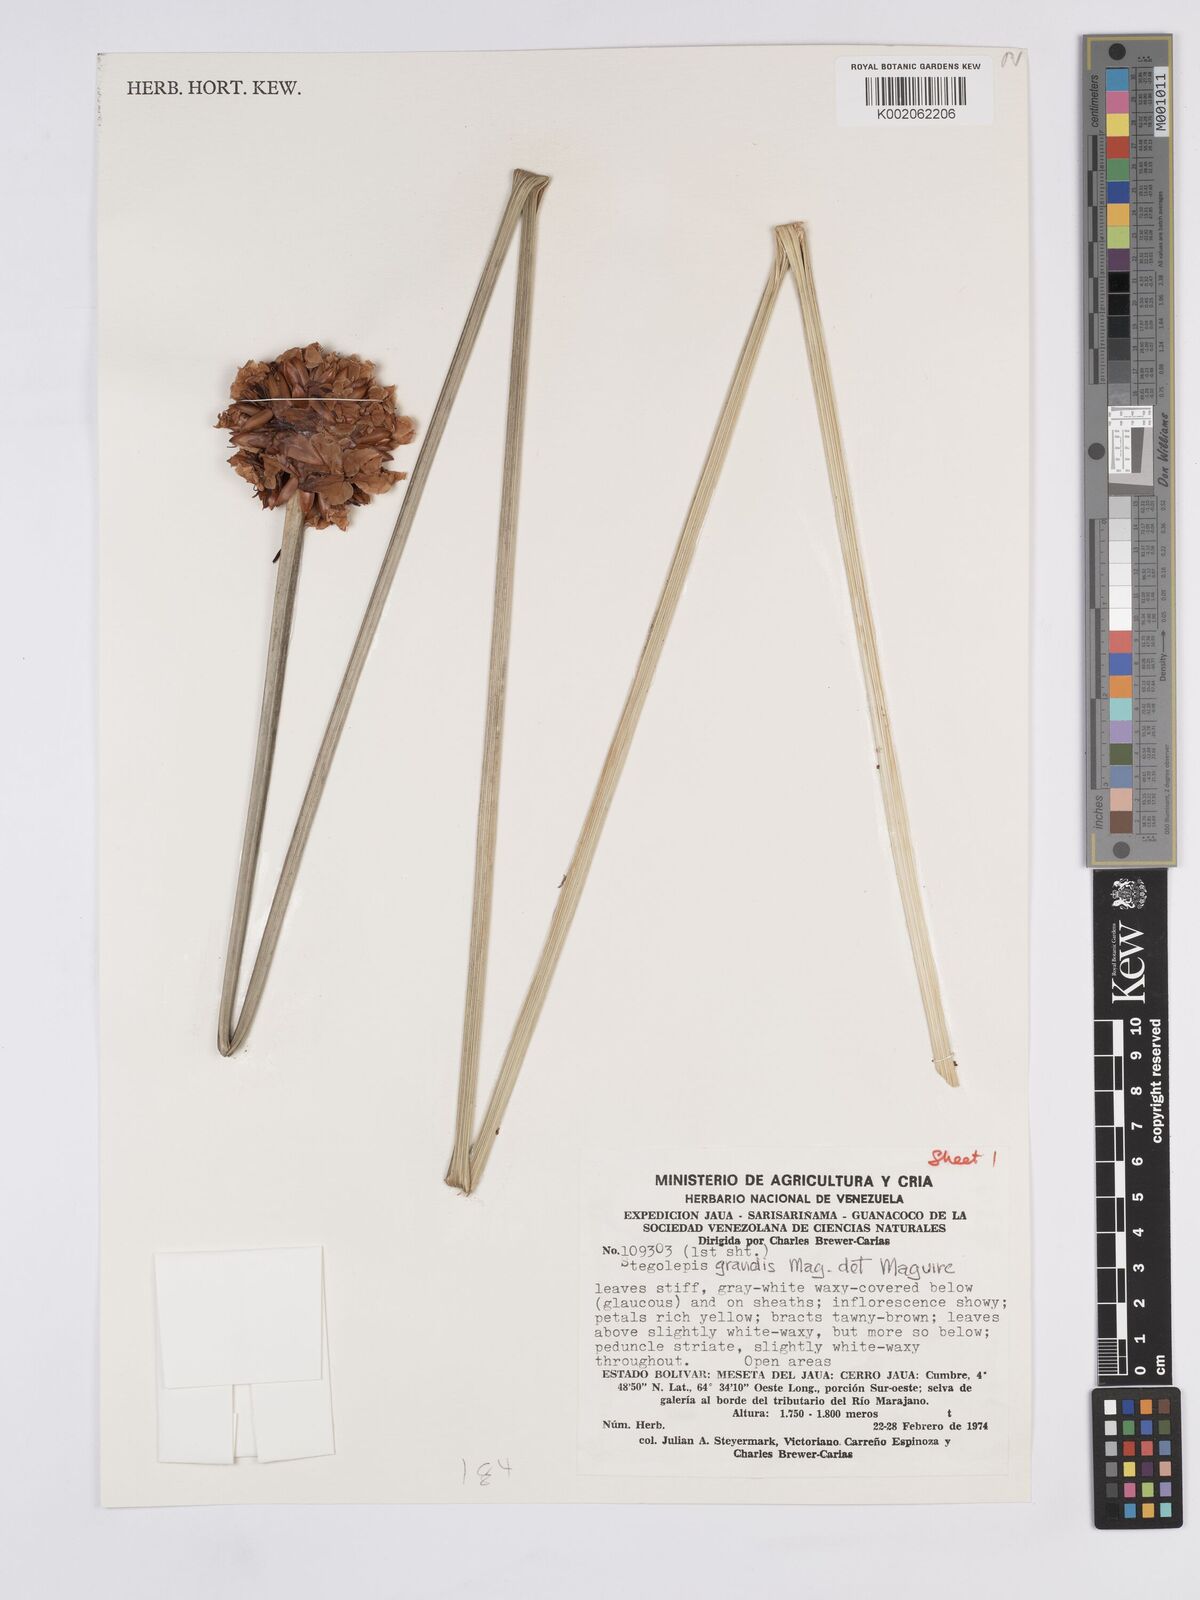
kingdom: Plantae
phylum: Tracheophyta
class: Liliopsida
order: Poales
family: Rapateaceae
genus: Stegolepis
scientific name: Stegolepis grandis
